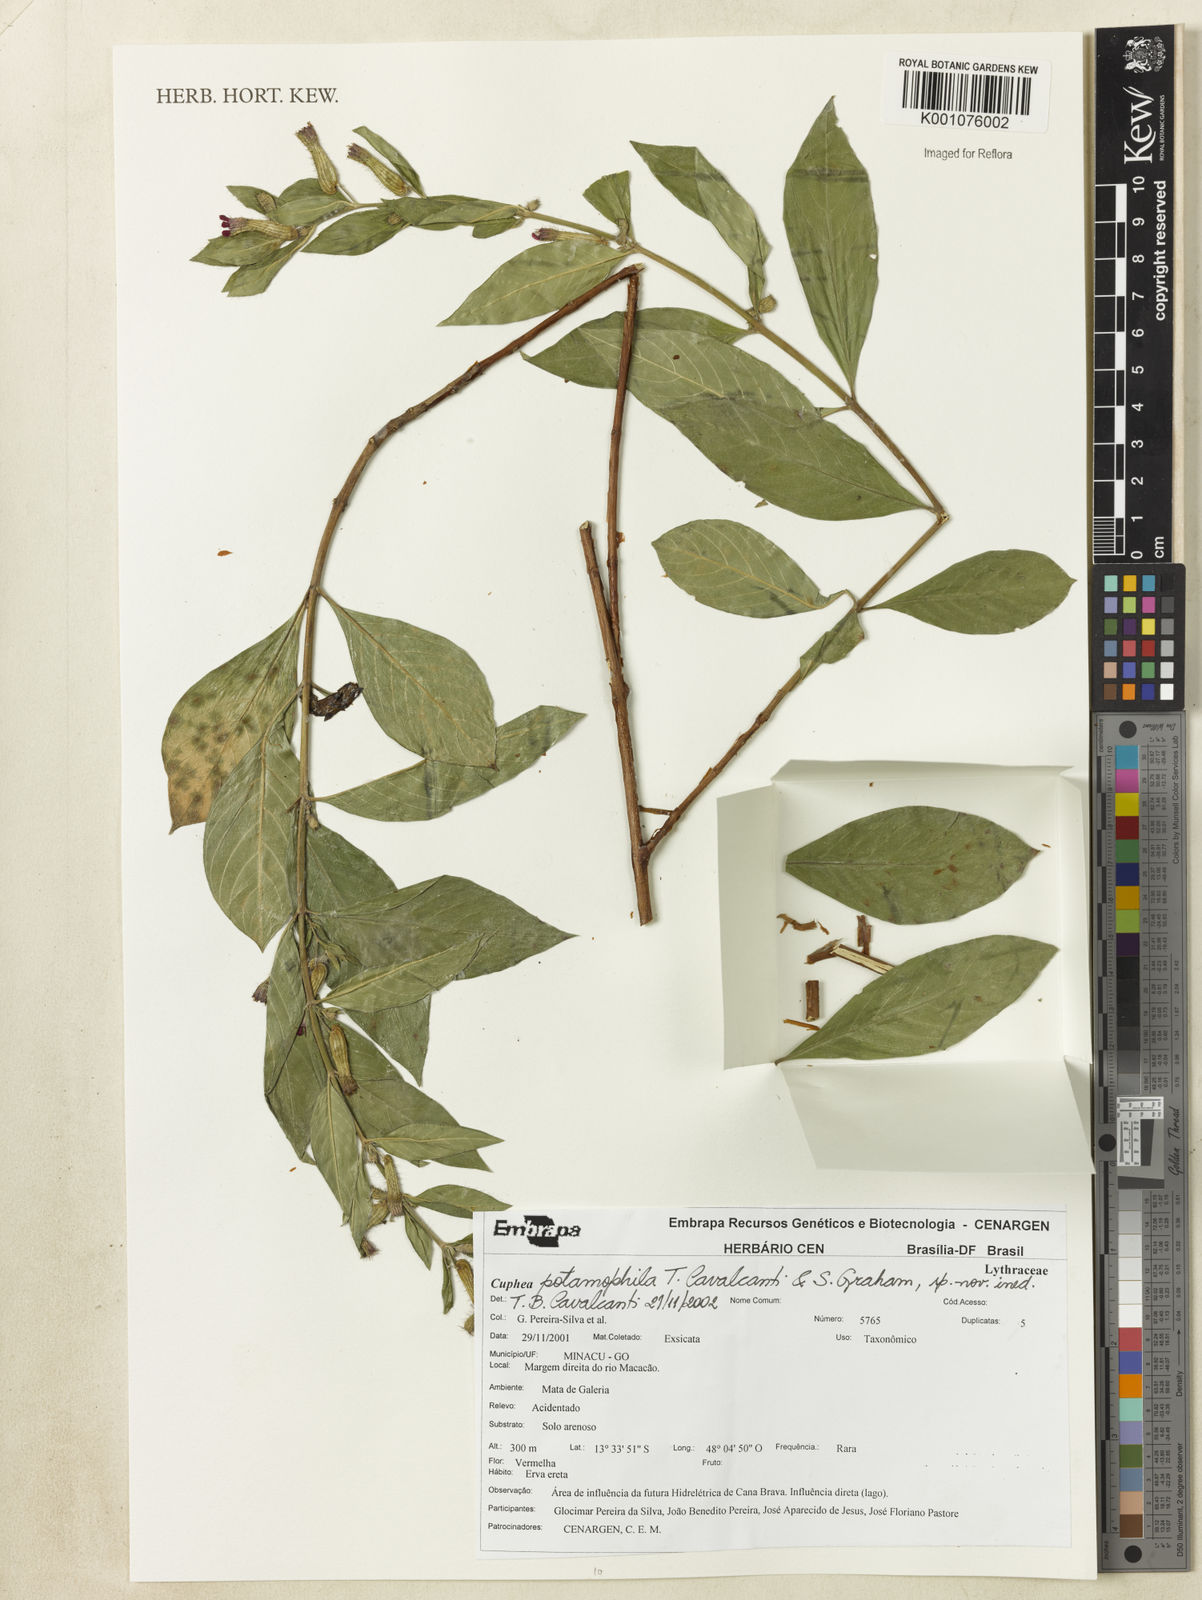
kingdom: Plantae
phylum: Tracheophyta
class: Magnoliopsida
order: Myrtales
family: Lythraceae
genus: Cuphea
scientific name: Cuphea potamophila
